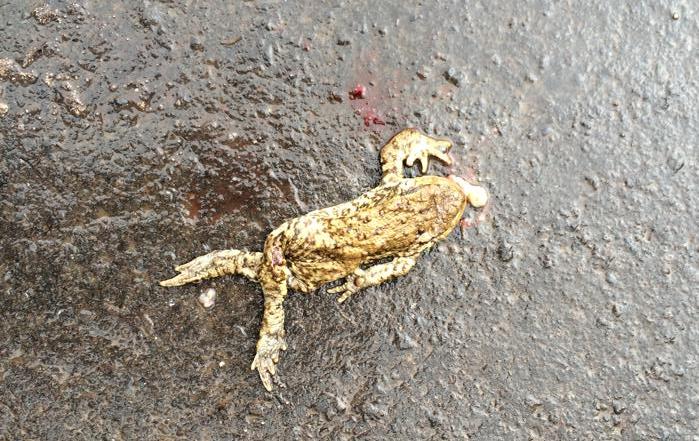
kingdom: Animalia
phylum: Chordata
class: Amphibia
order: Anura
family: Bufonidae
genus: Bufo
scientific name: Bufo bufo
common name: Common toad
